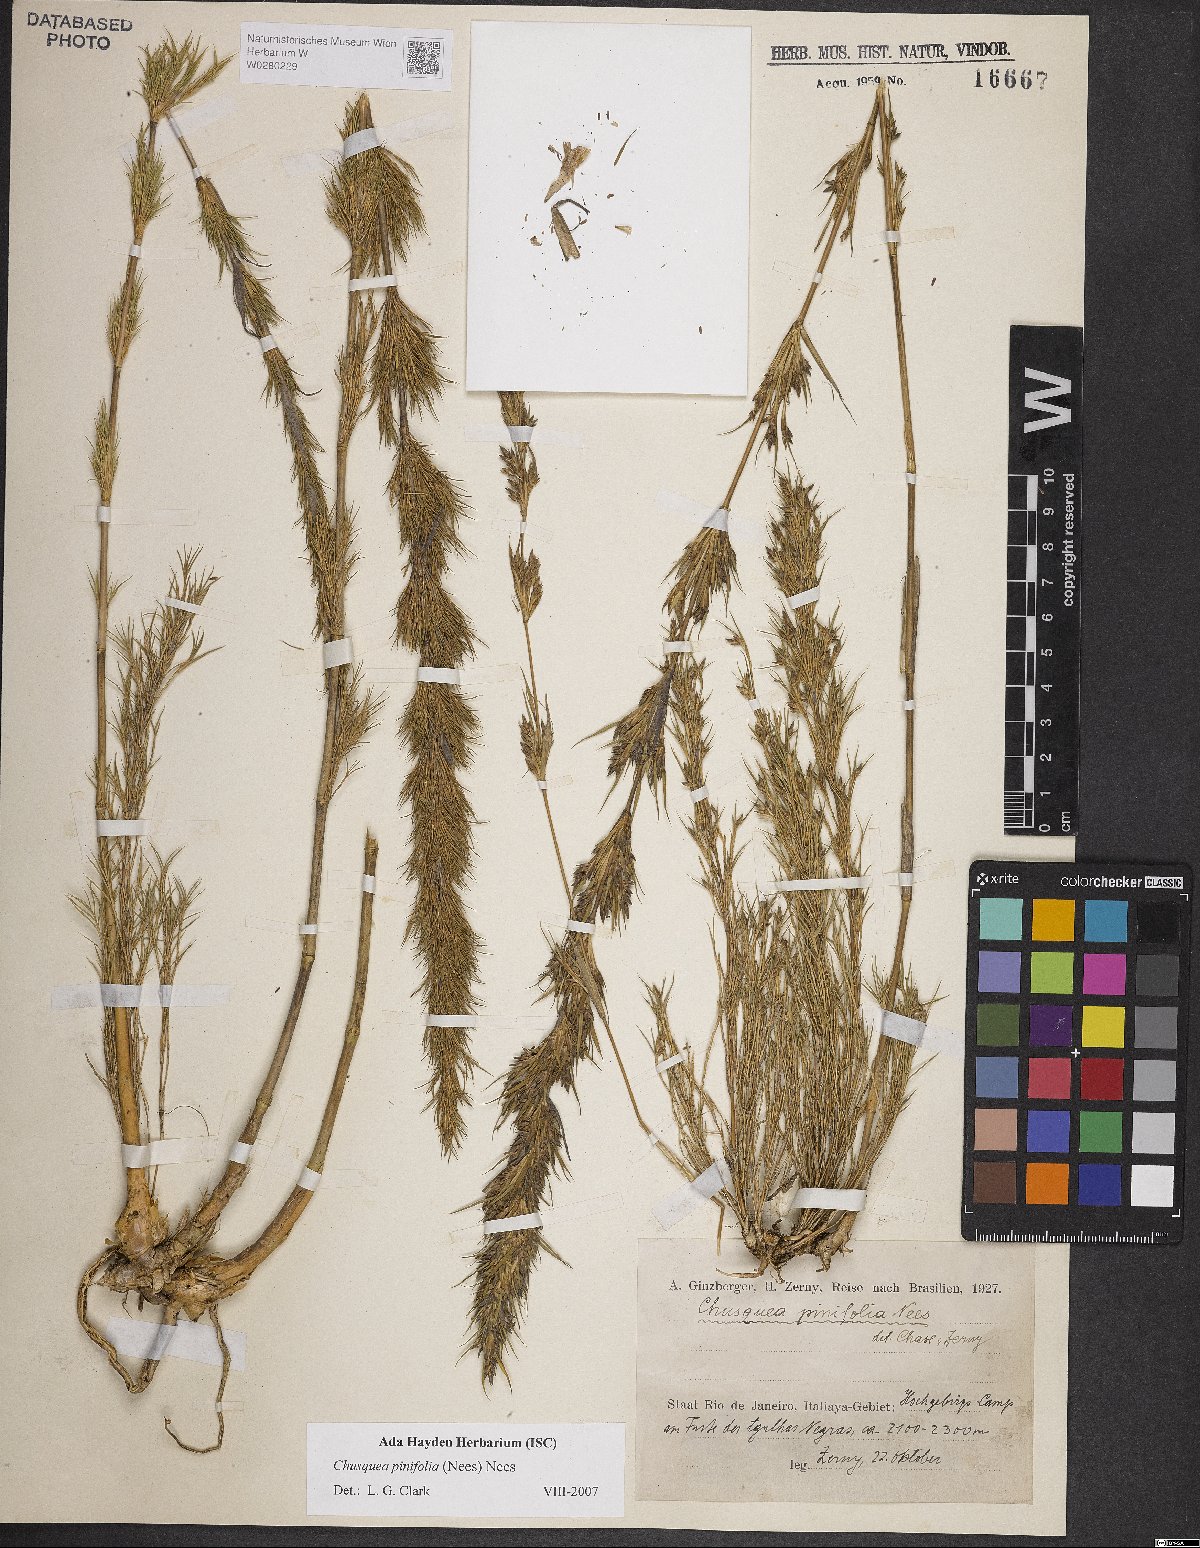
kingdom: Plantae
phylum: Tracheophyta
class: Liliopsida
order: Poales
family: Poaceae
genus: Chusquea
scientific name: Chusquea pinifolia
